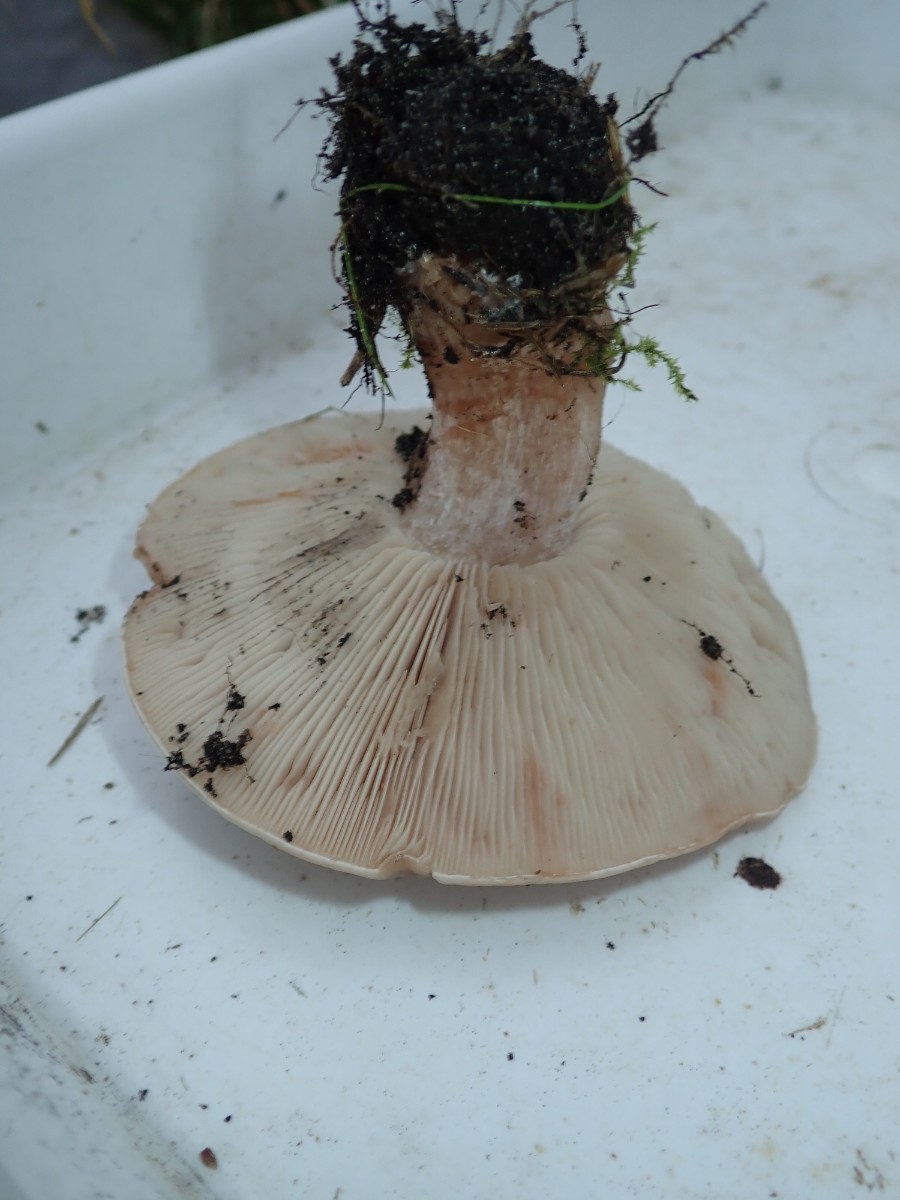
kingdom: Fungi
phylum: Basidiomycota
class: Agaricomycetes
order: Agaricales
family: Tricholomataceae
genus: Clitocybe
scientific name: Clitocybe nebularis
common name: tåge-tragthat
